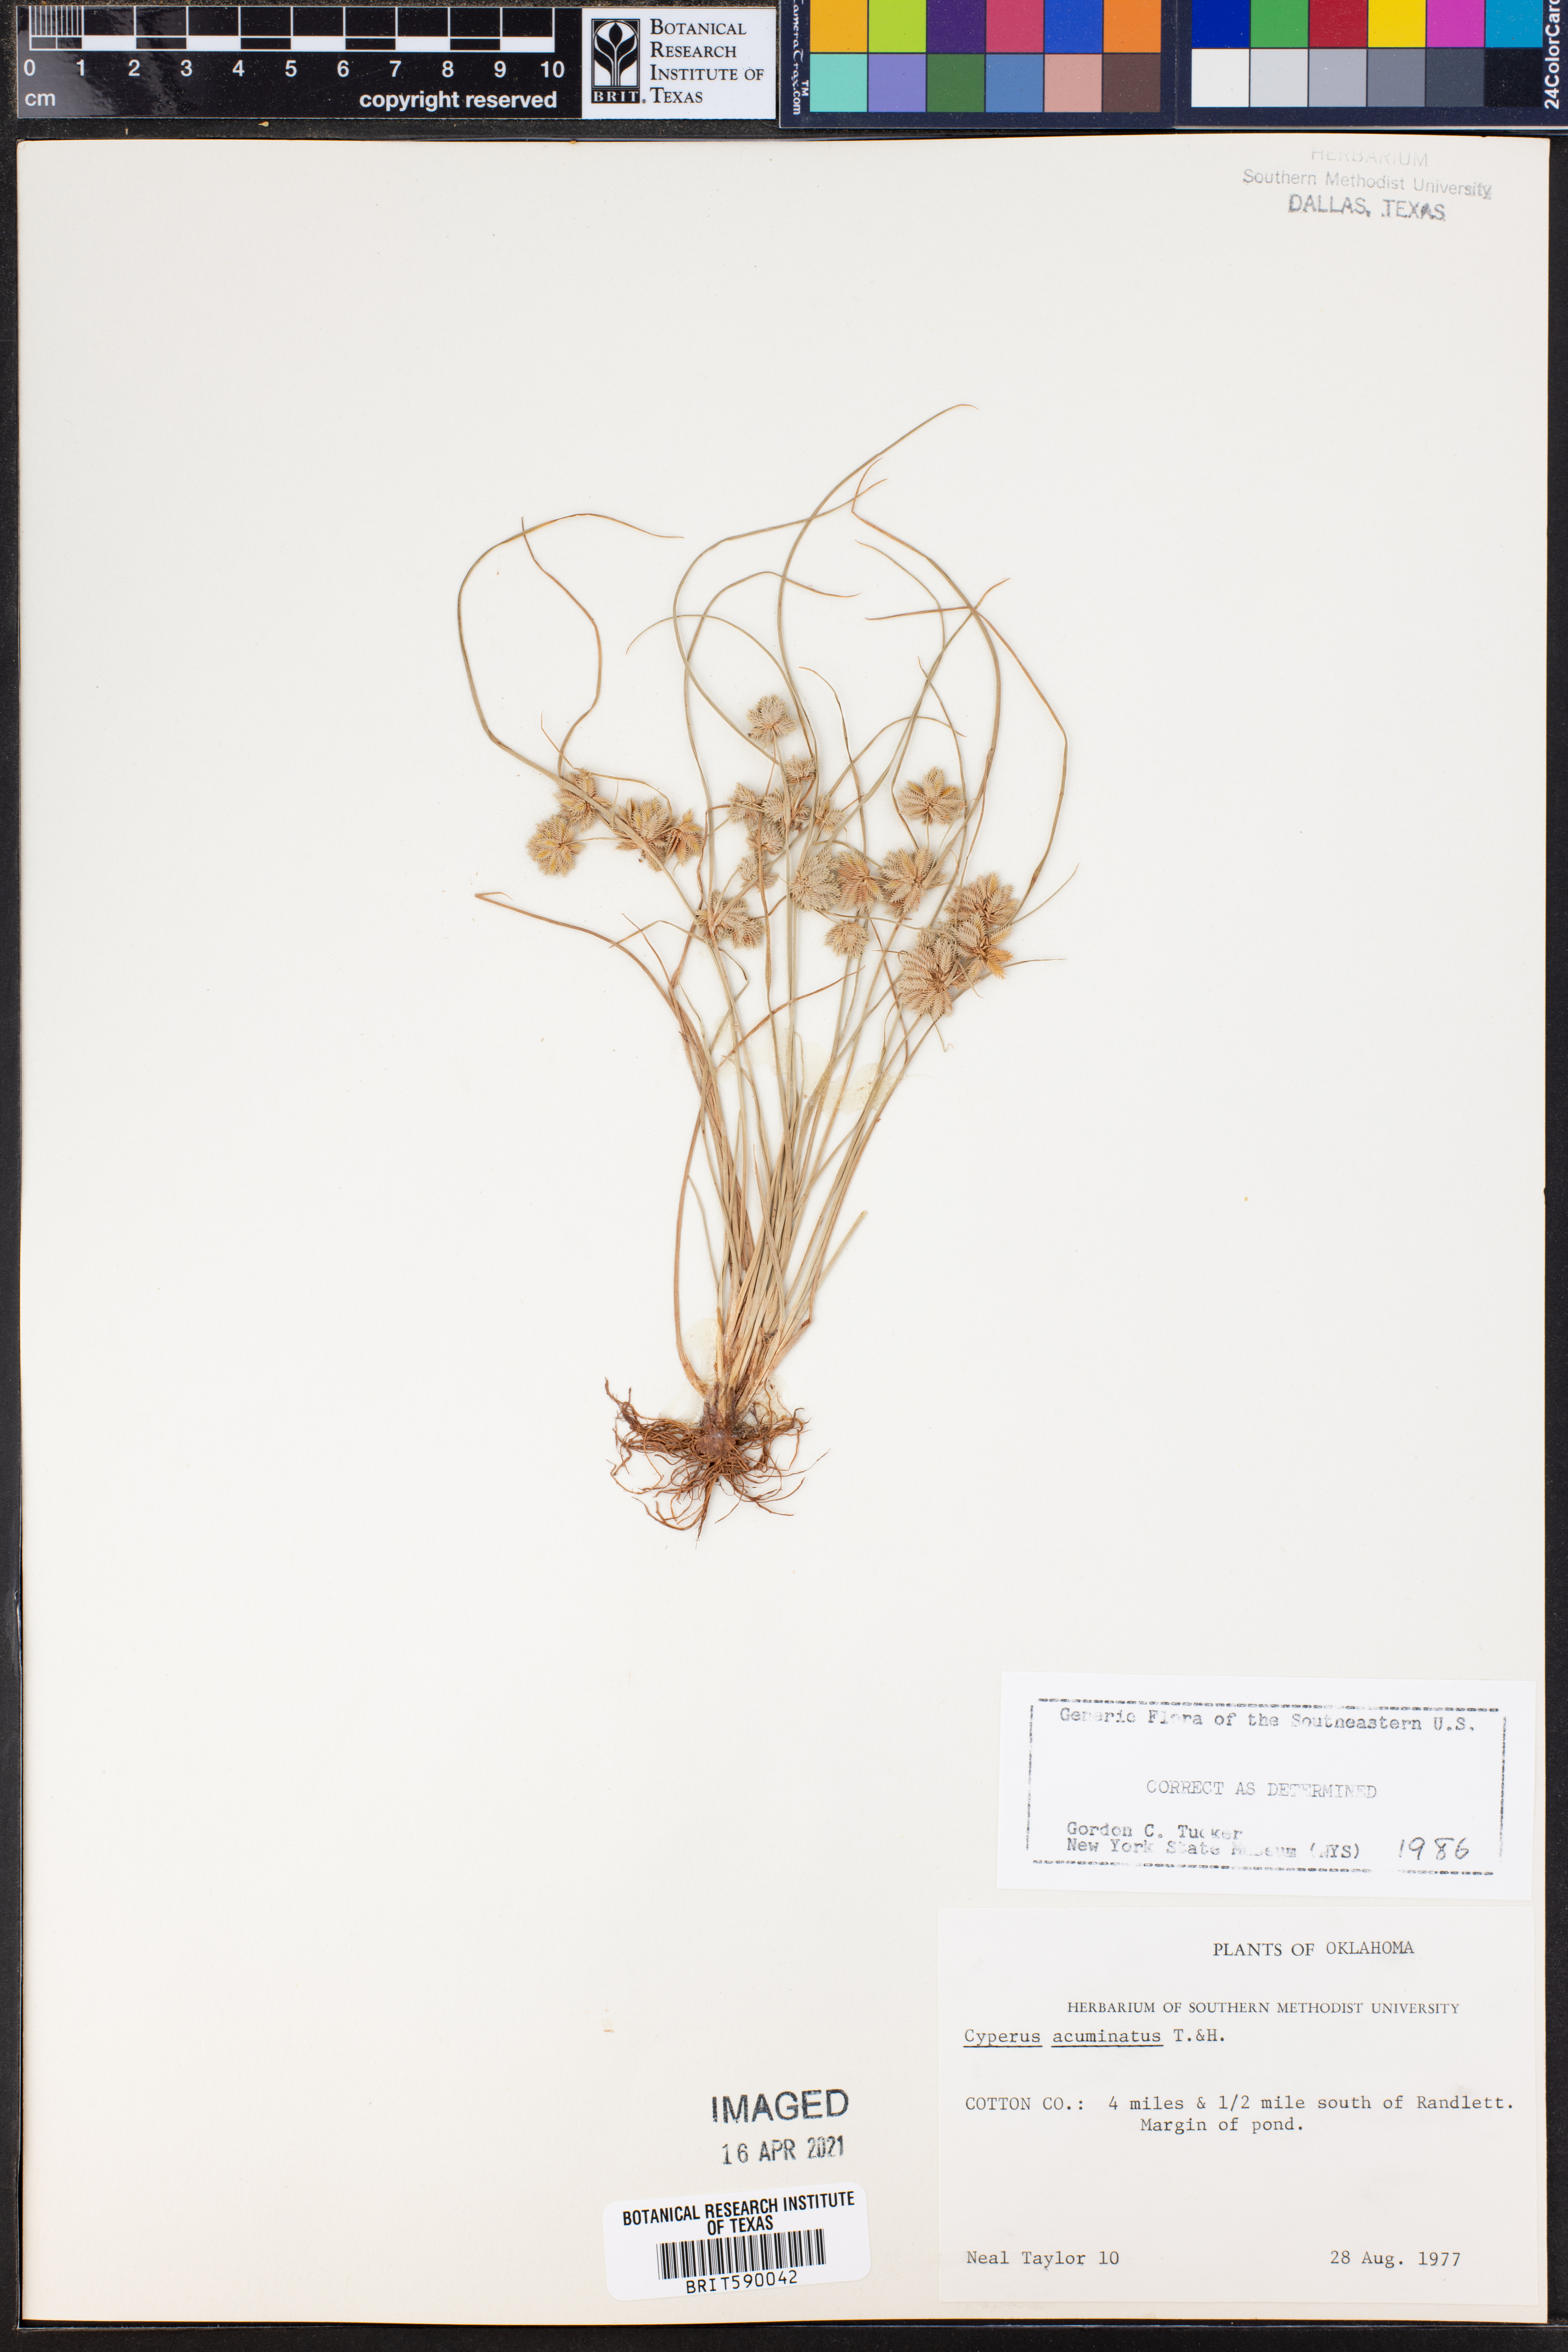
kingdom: Plantae
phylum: Tracheophyta
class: Liliopsida
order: Poales
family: Cyperaceae
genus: Cyperus
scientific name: Cyperus acuminatus
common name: Short-pointed cyperus
